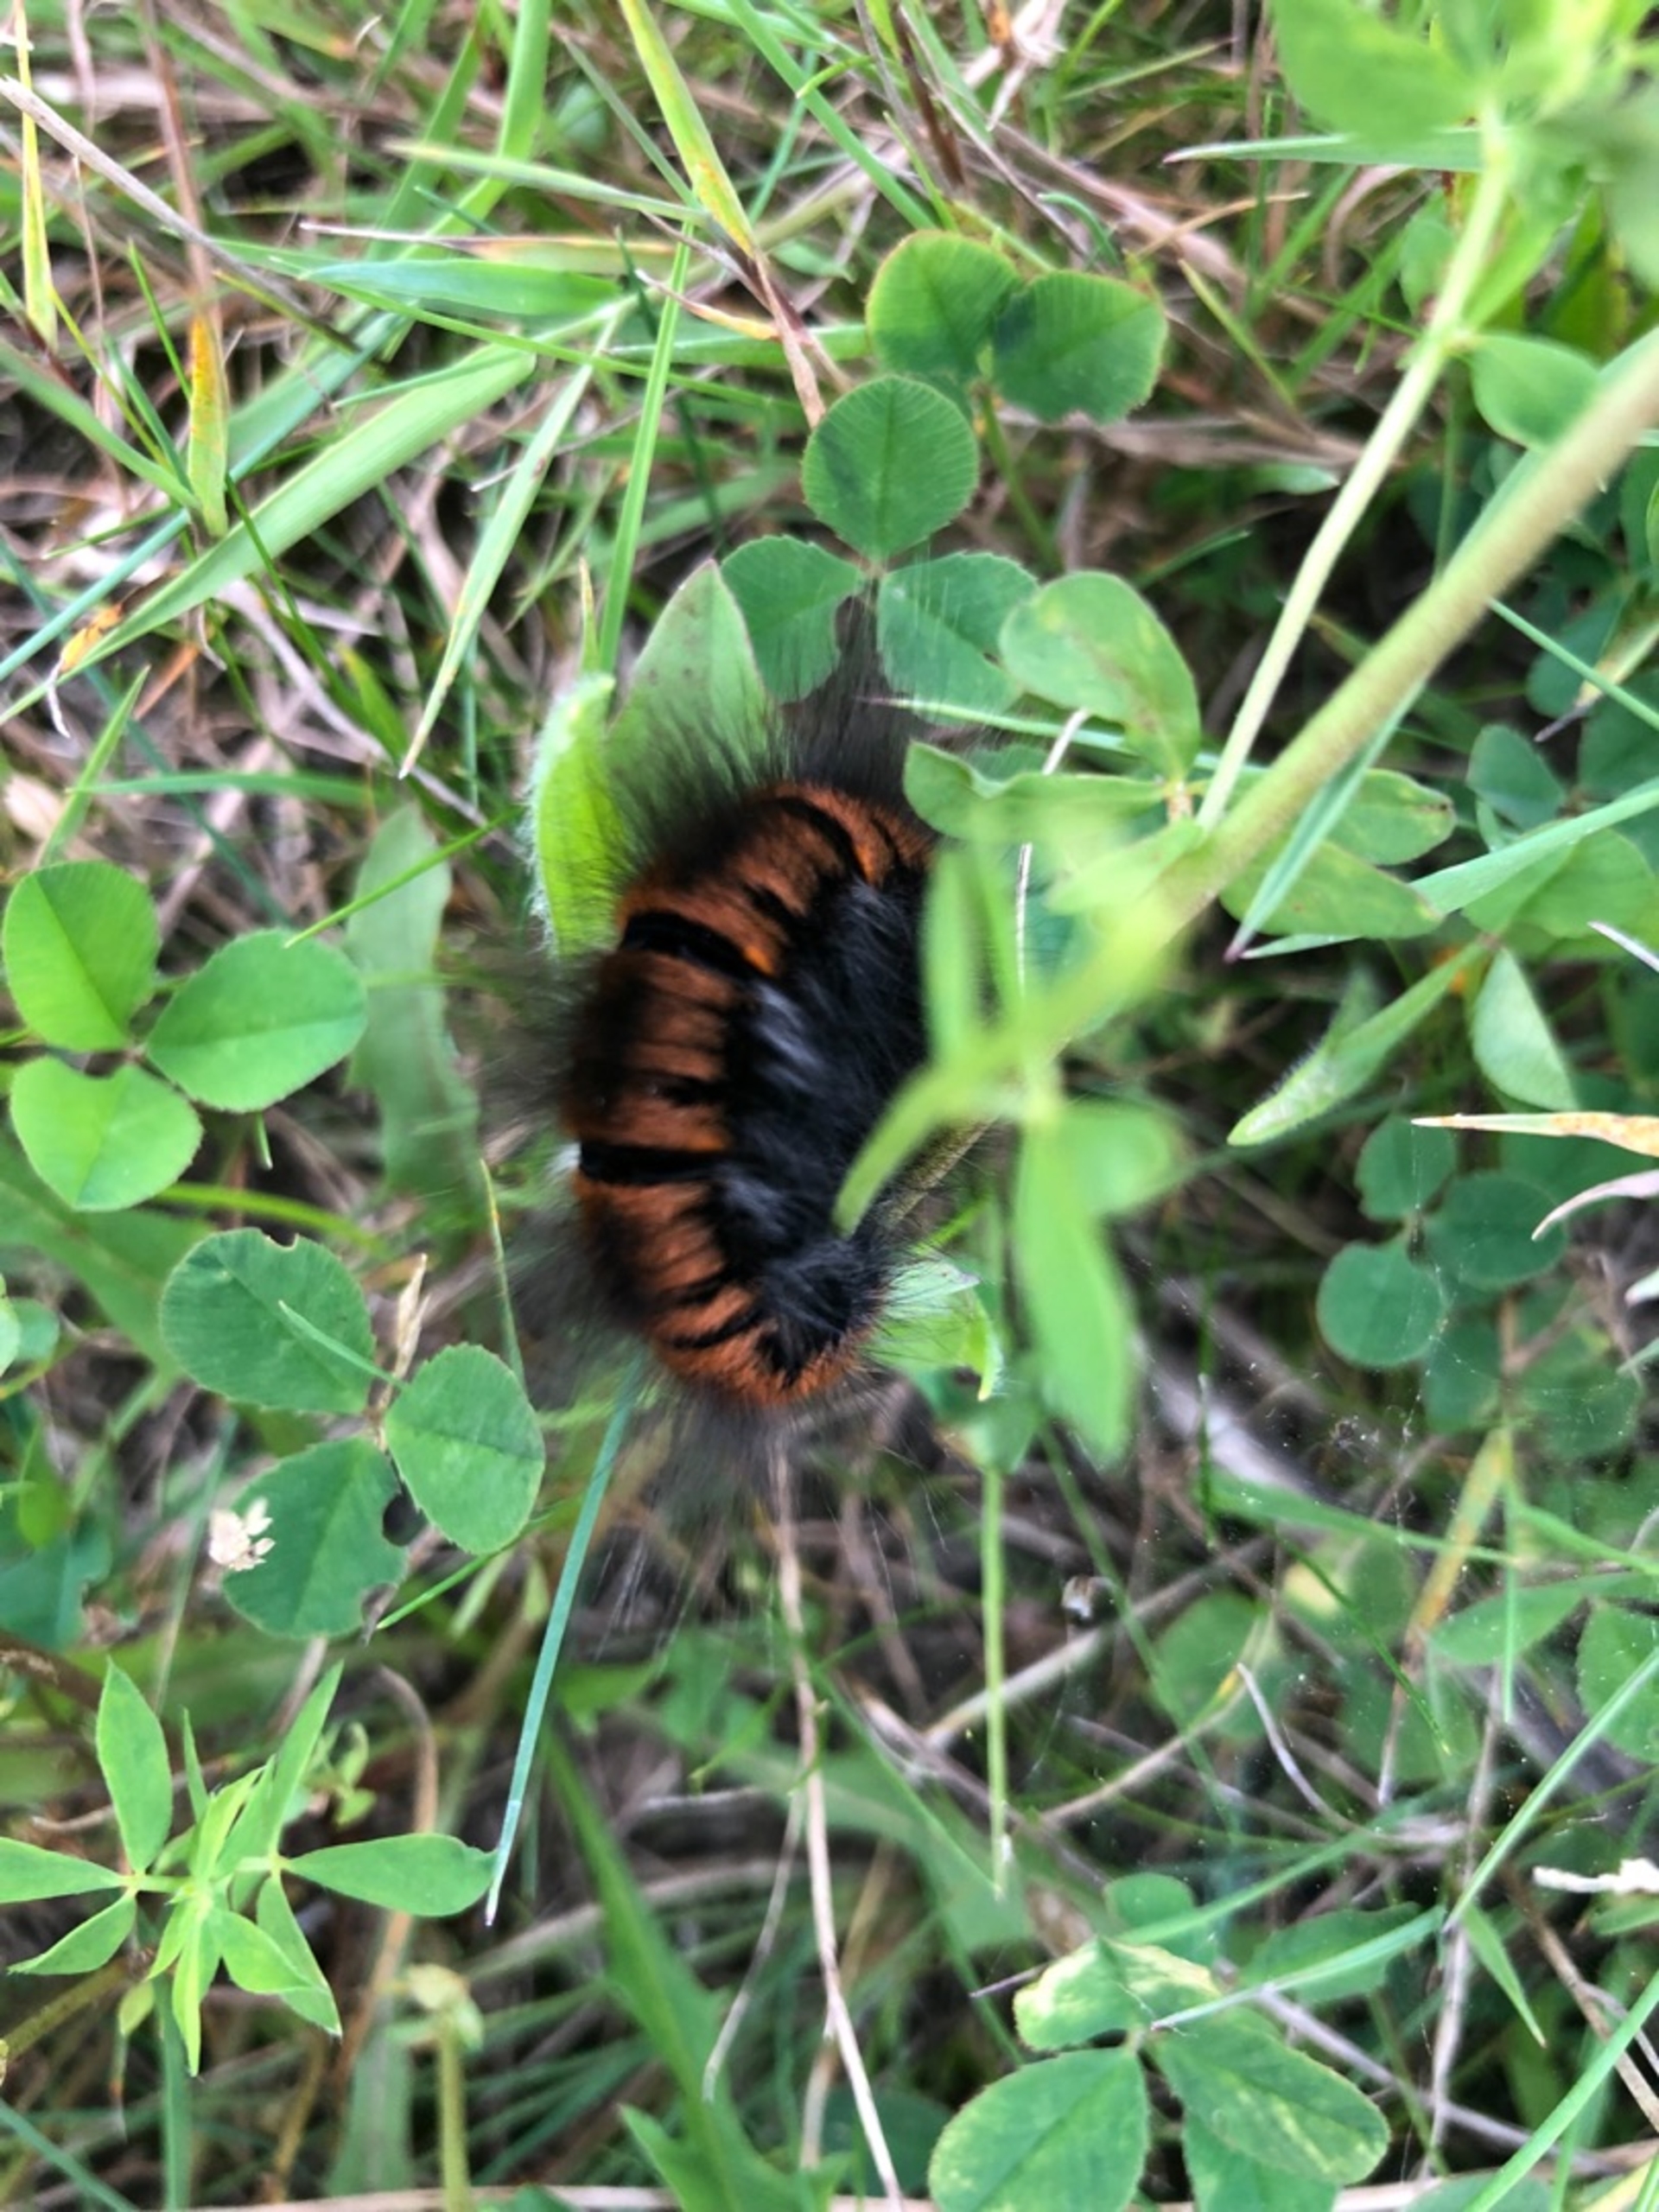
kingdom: Animalia
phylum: Arthropoda
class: Insecta
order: Lepidoptera
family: Lasiocampidae
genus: Macrothylacia
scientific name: Macrothylacia rubi
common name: Brombærspinder
